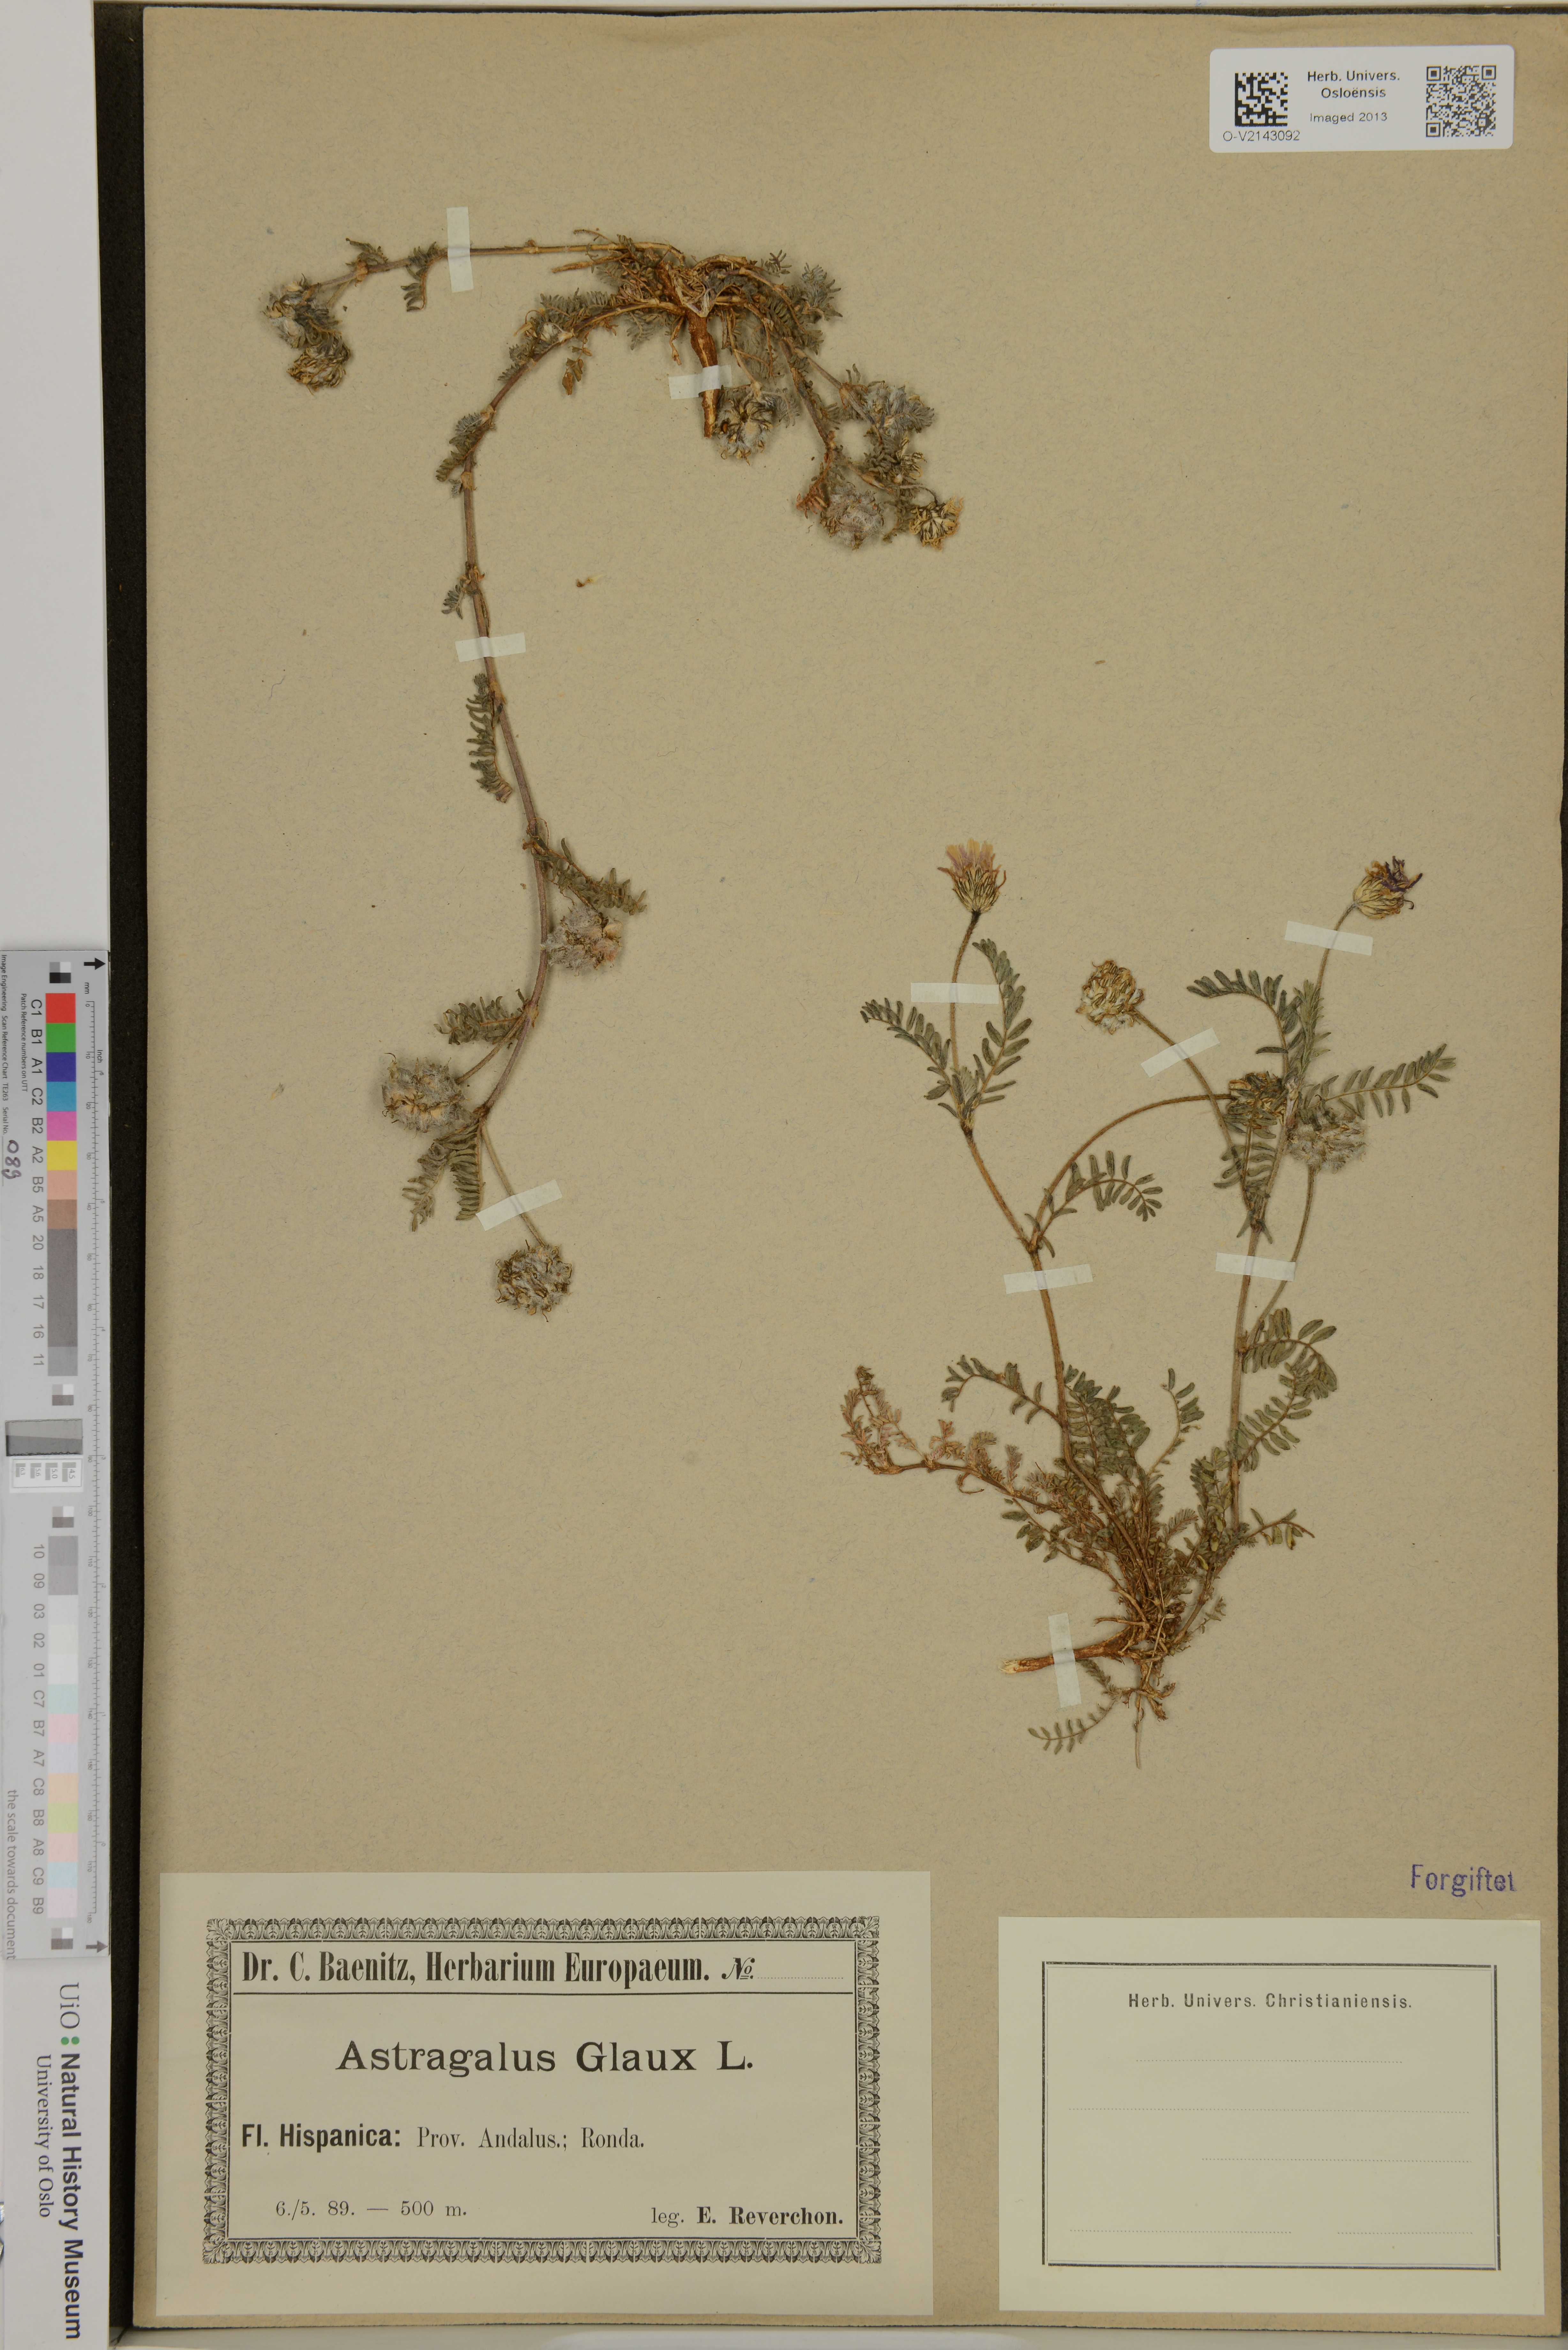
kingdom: Plantae
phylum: Tracheophyta
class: Magnoliopsida
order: Fabales
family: Fabaceae
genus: Astragalus
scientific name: Astragalus glaux
